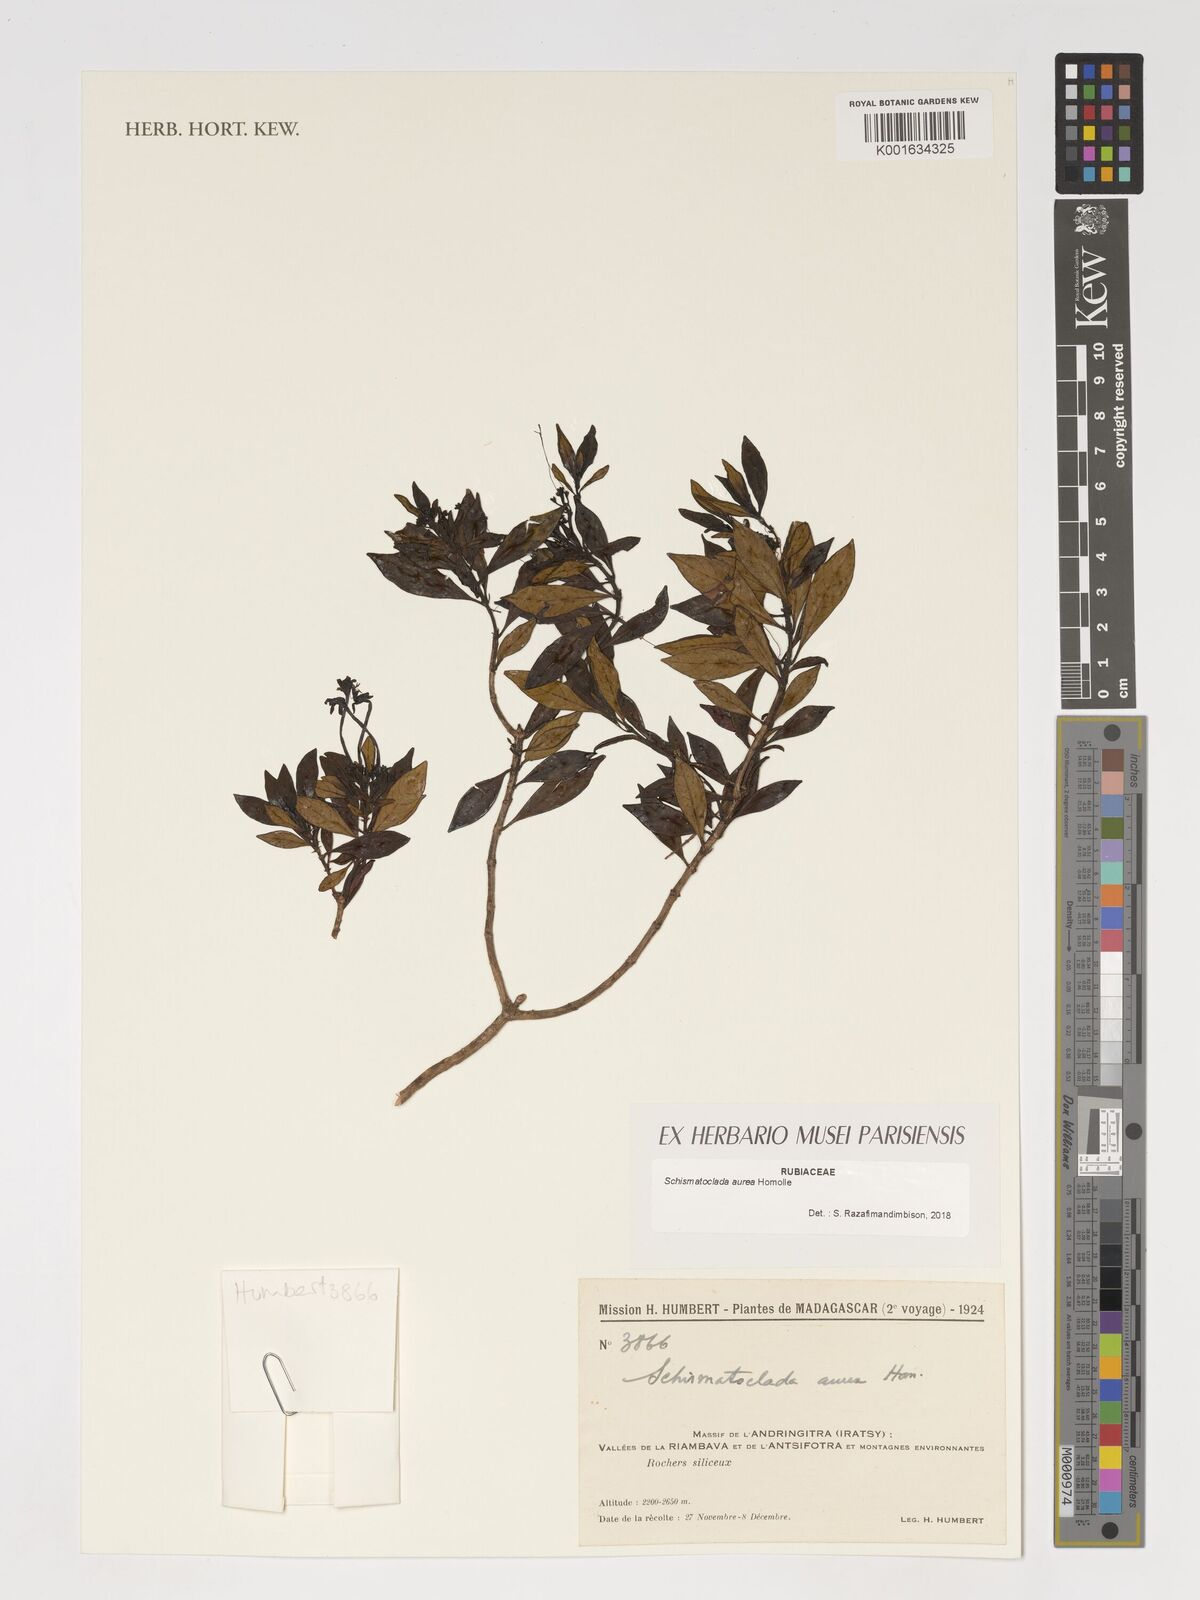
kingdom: Plantae
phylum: Tracheophyta
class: Magnoliopsida
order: Gentianales
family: Rubiaceae
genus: Schismatoclada
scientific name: Schismatoclada aurea
